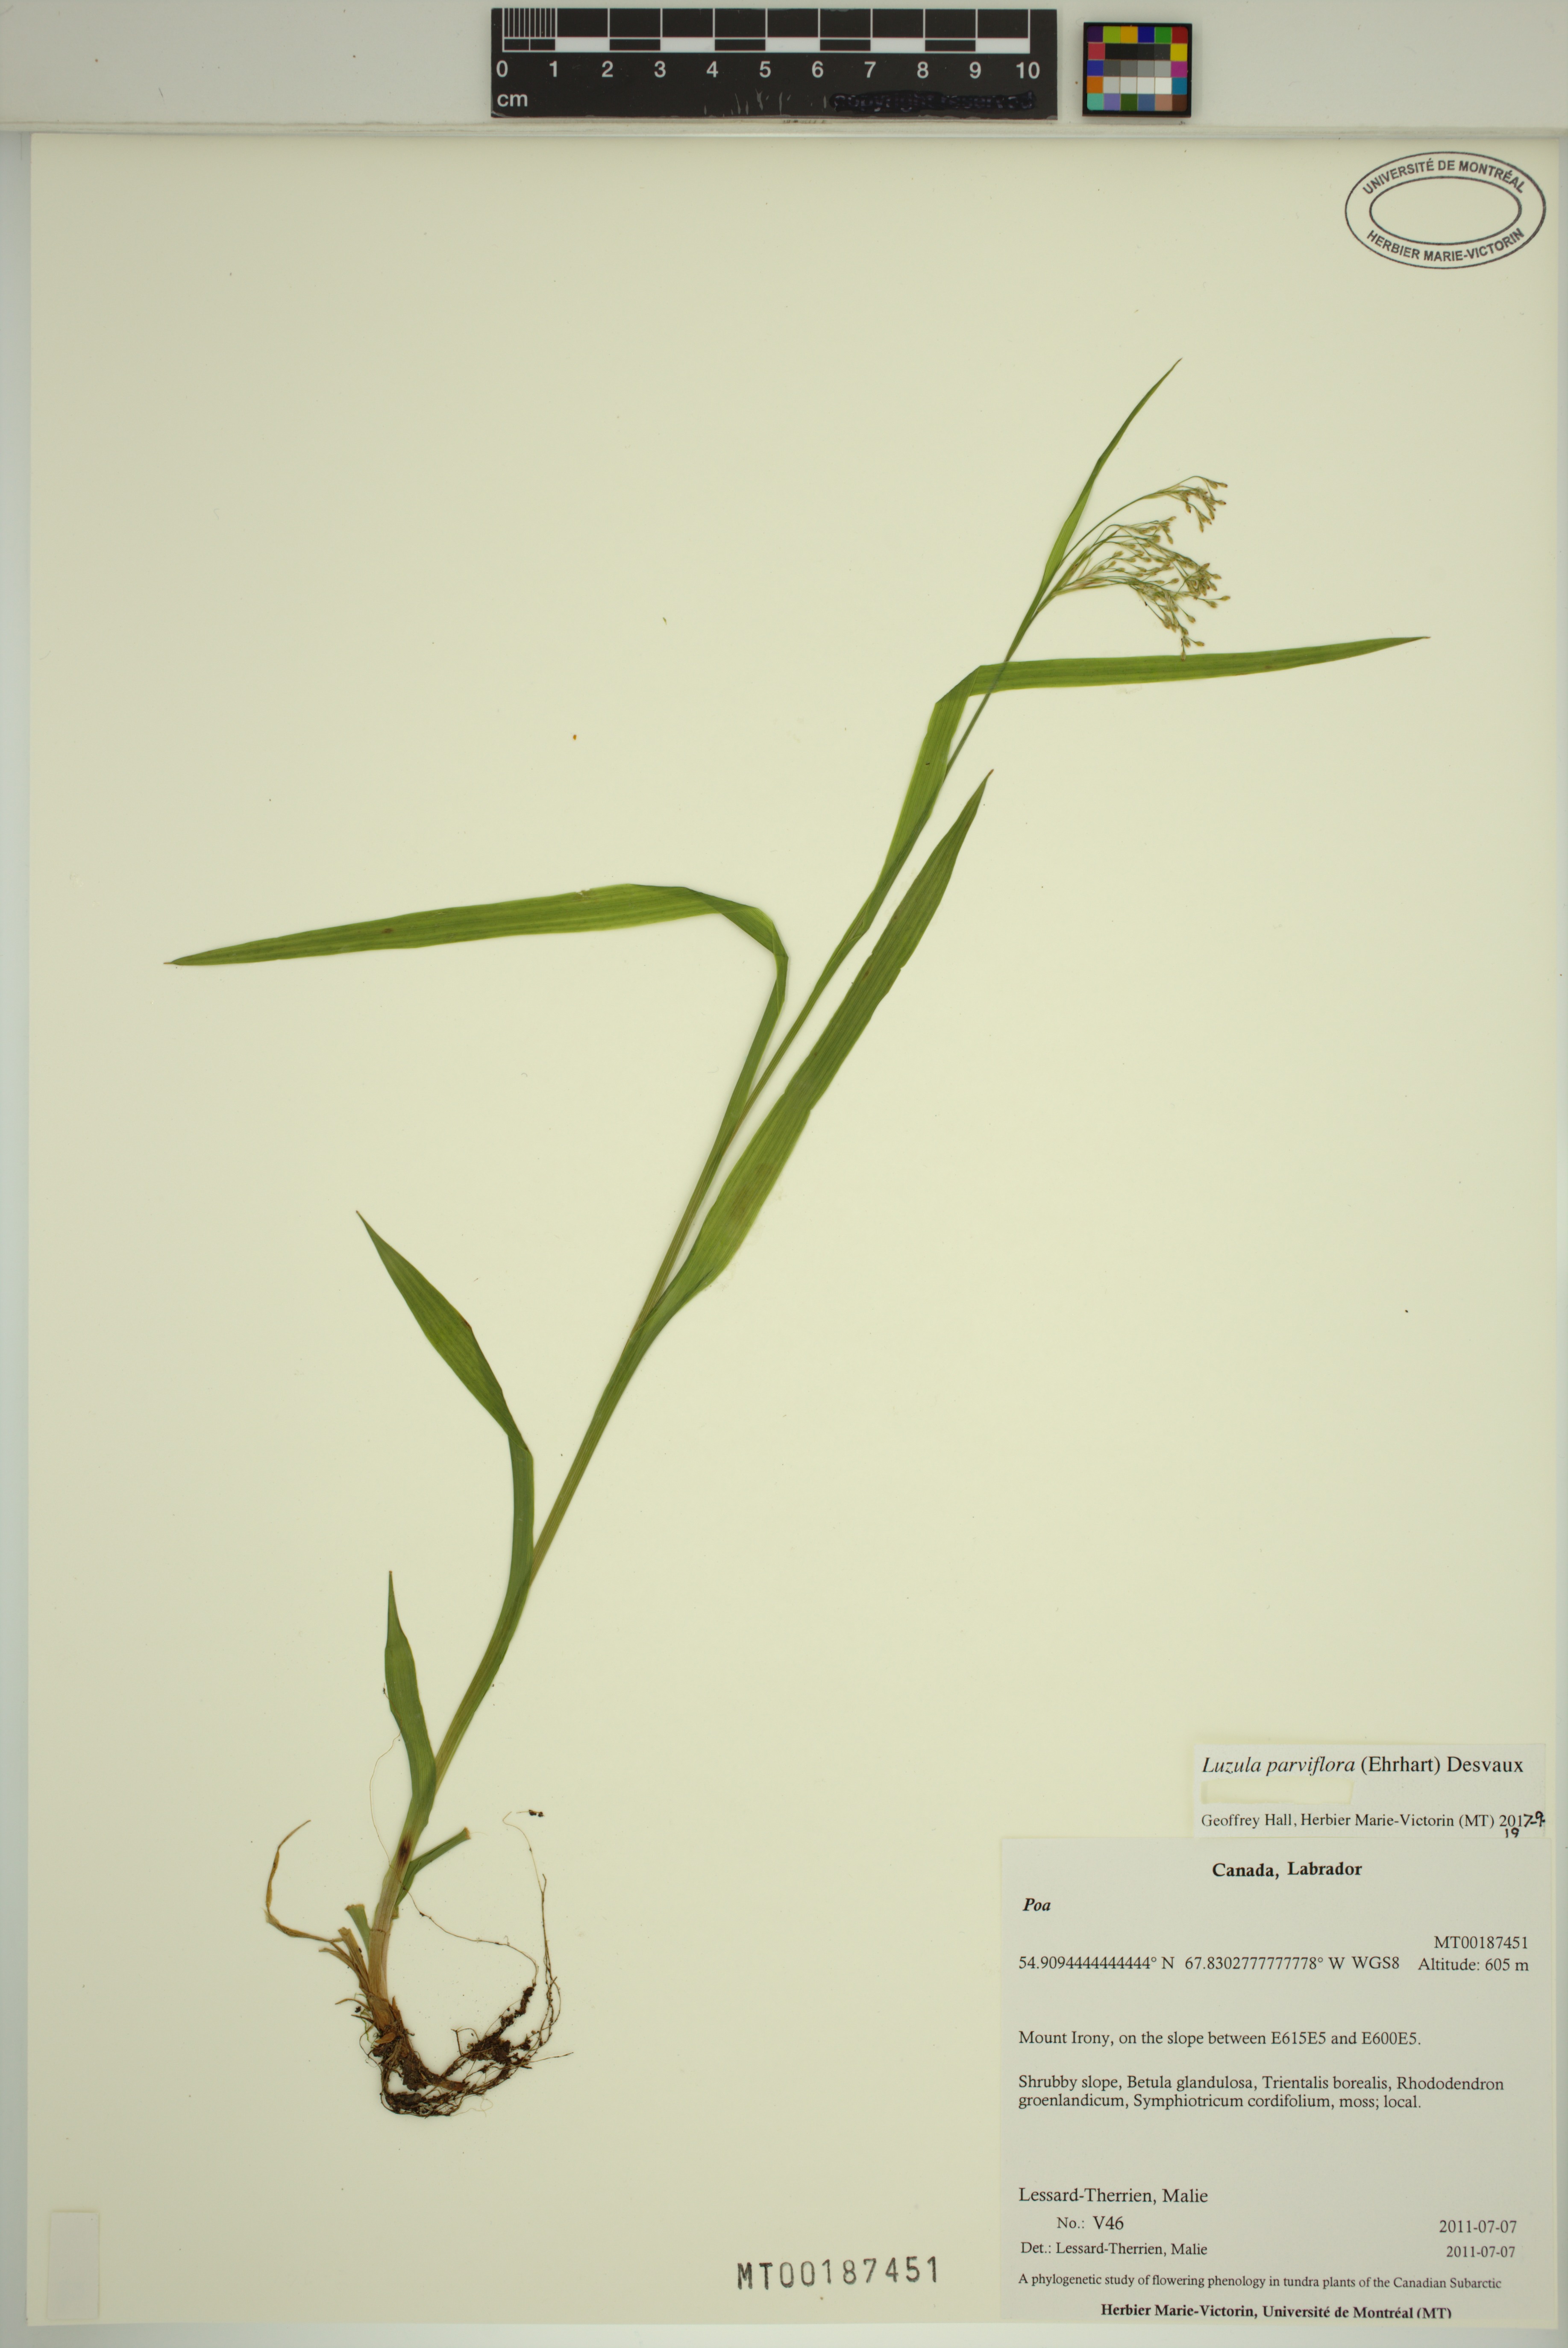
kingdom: Plantae
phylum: Tracheophyta
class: Liliopsida
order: Poales
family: Juncaceae
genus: Luzula
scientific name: Luzula parviflora
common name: Millet woodrush
